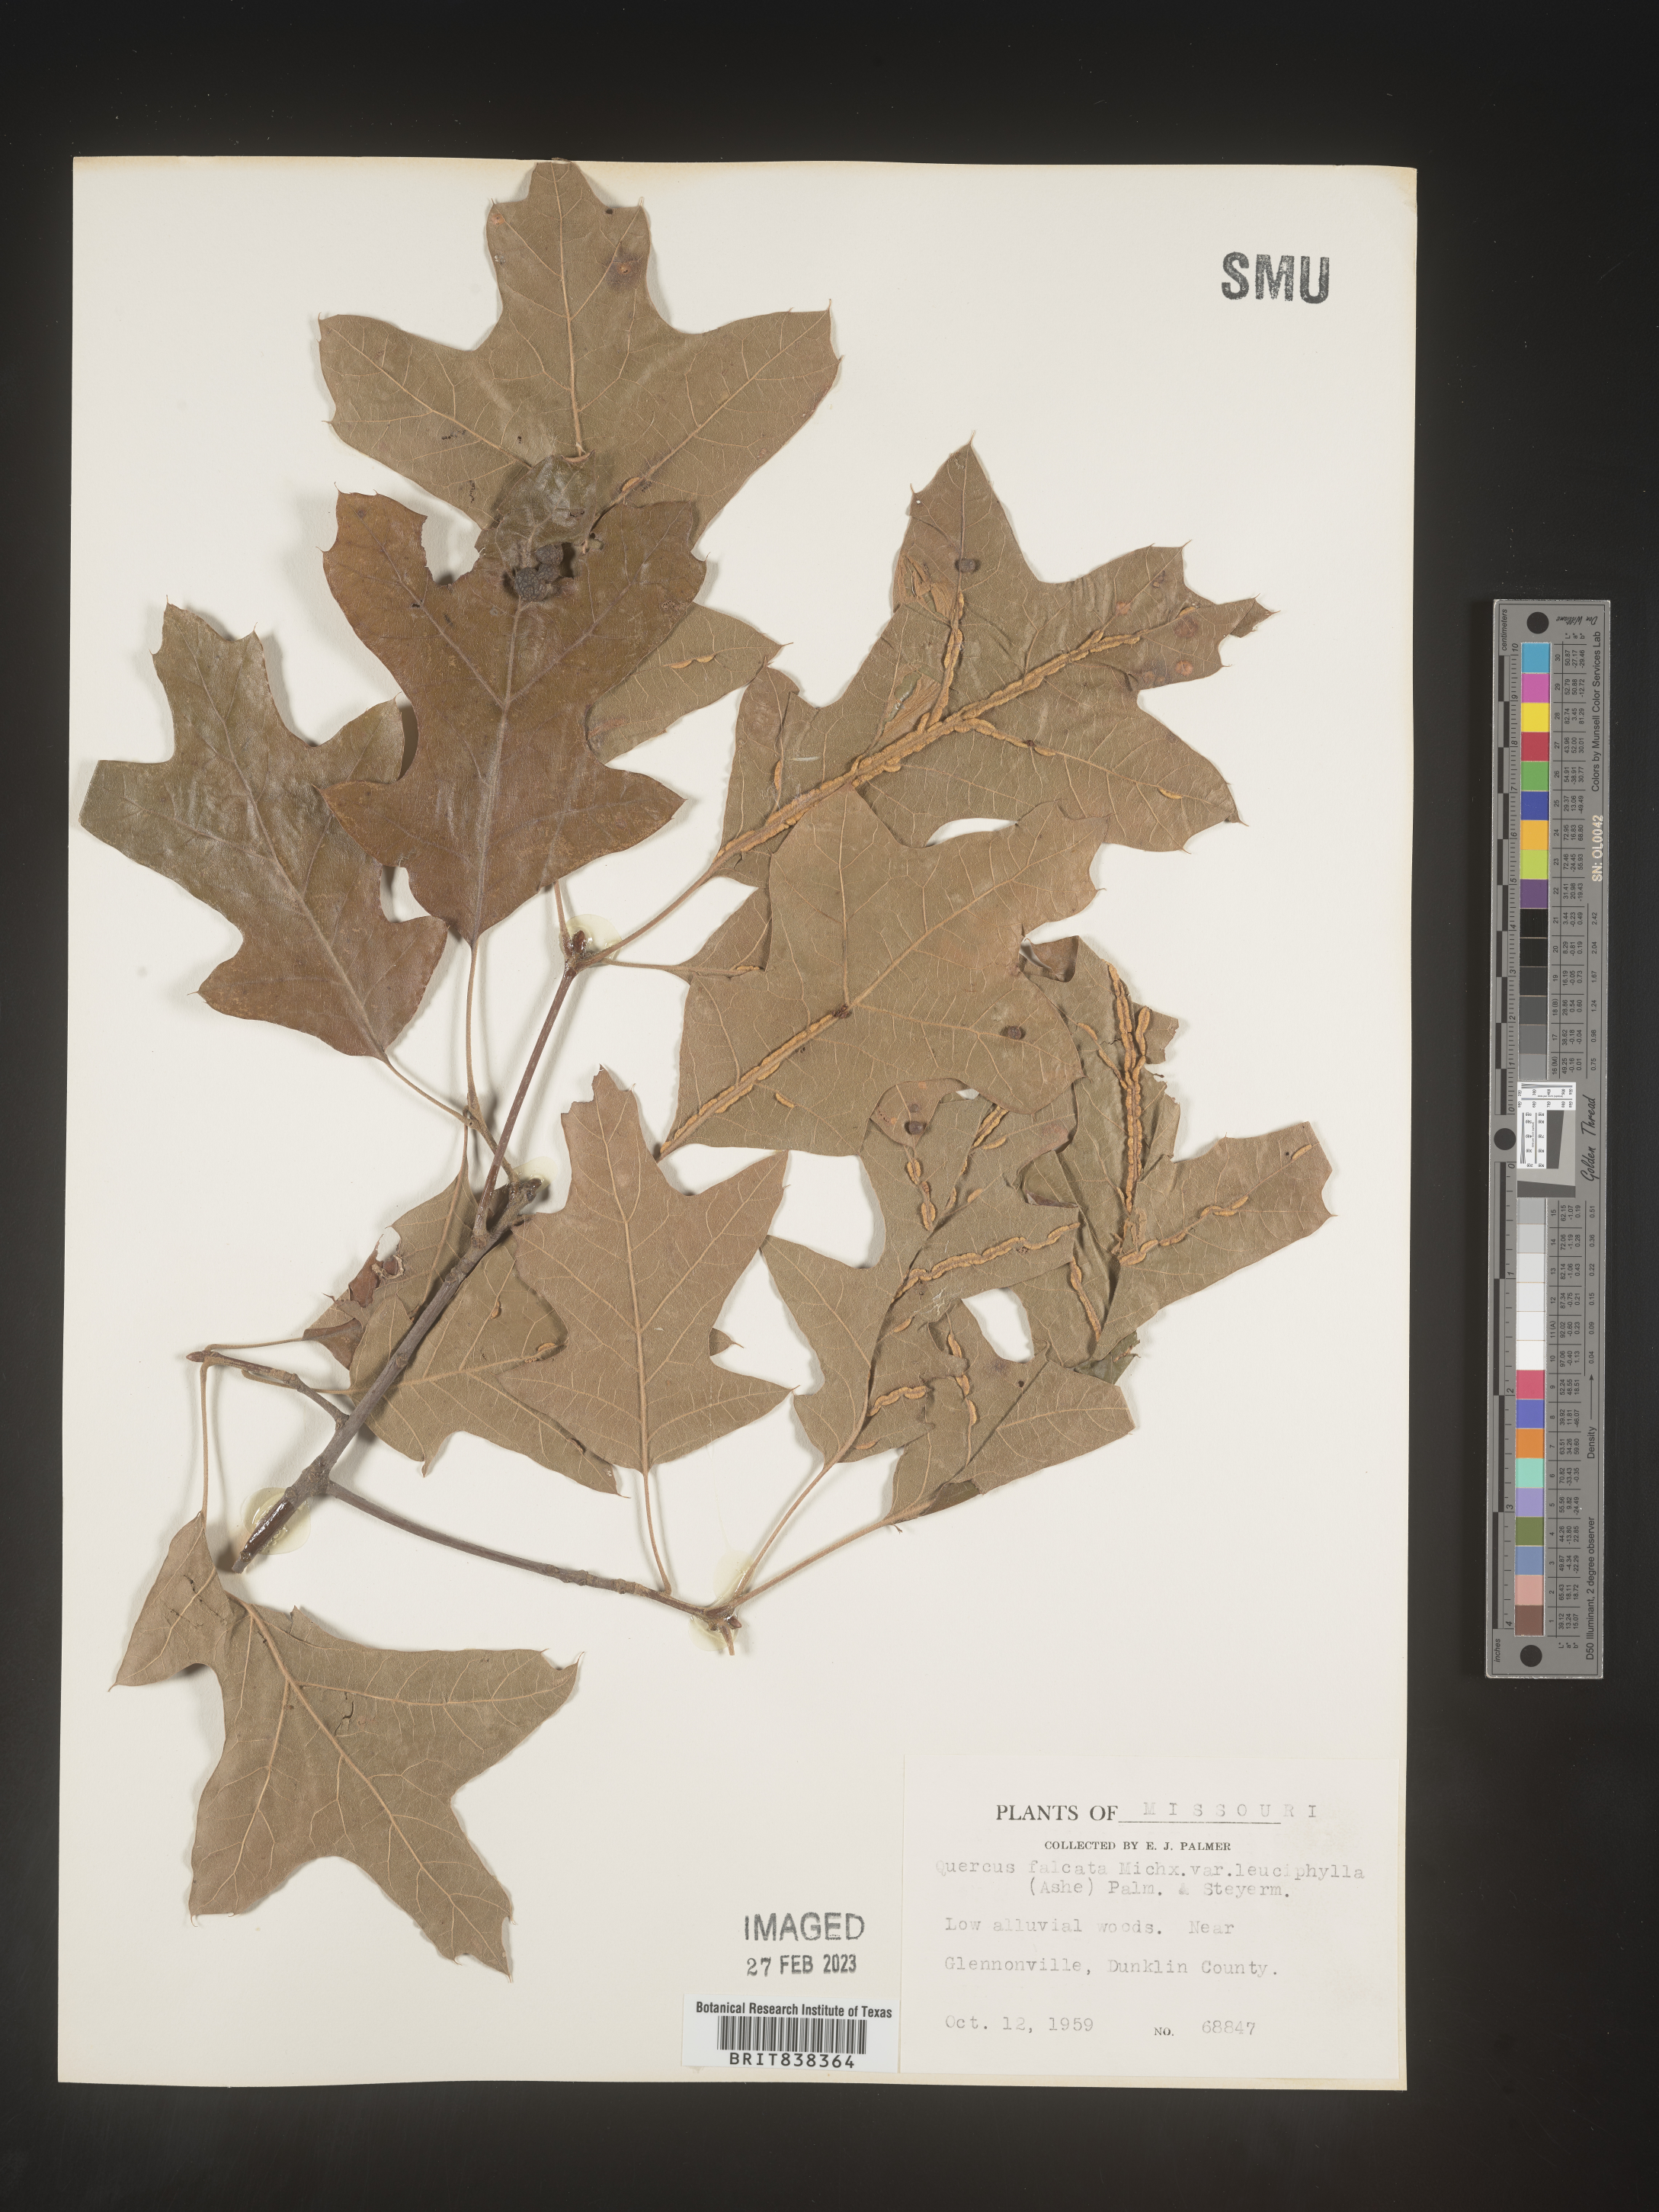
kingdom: Plantae
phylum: Tracheophyta
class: Magnoliopsida
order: Fagales
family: Fagaceae
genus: Quercus
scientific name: Quercus falcata
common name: Southern red oak
